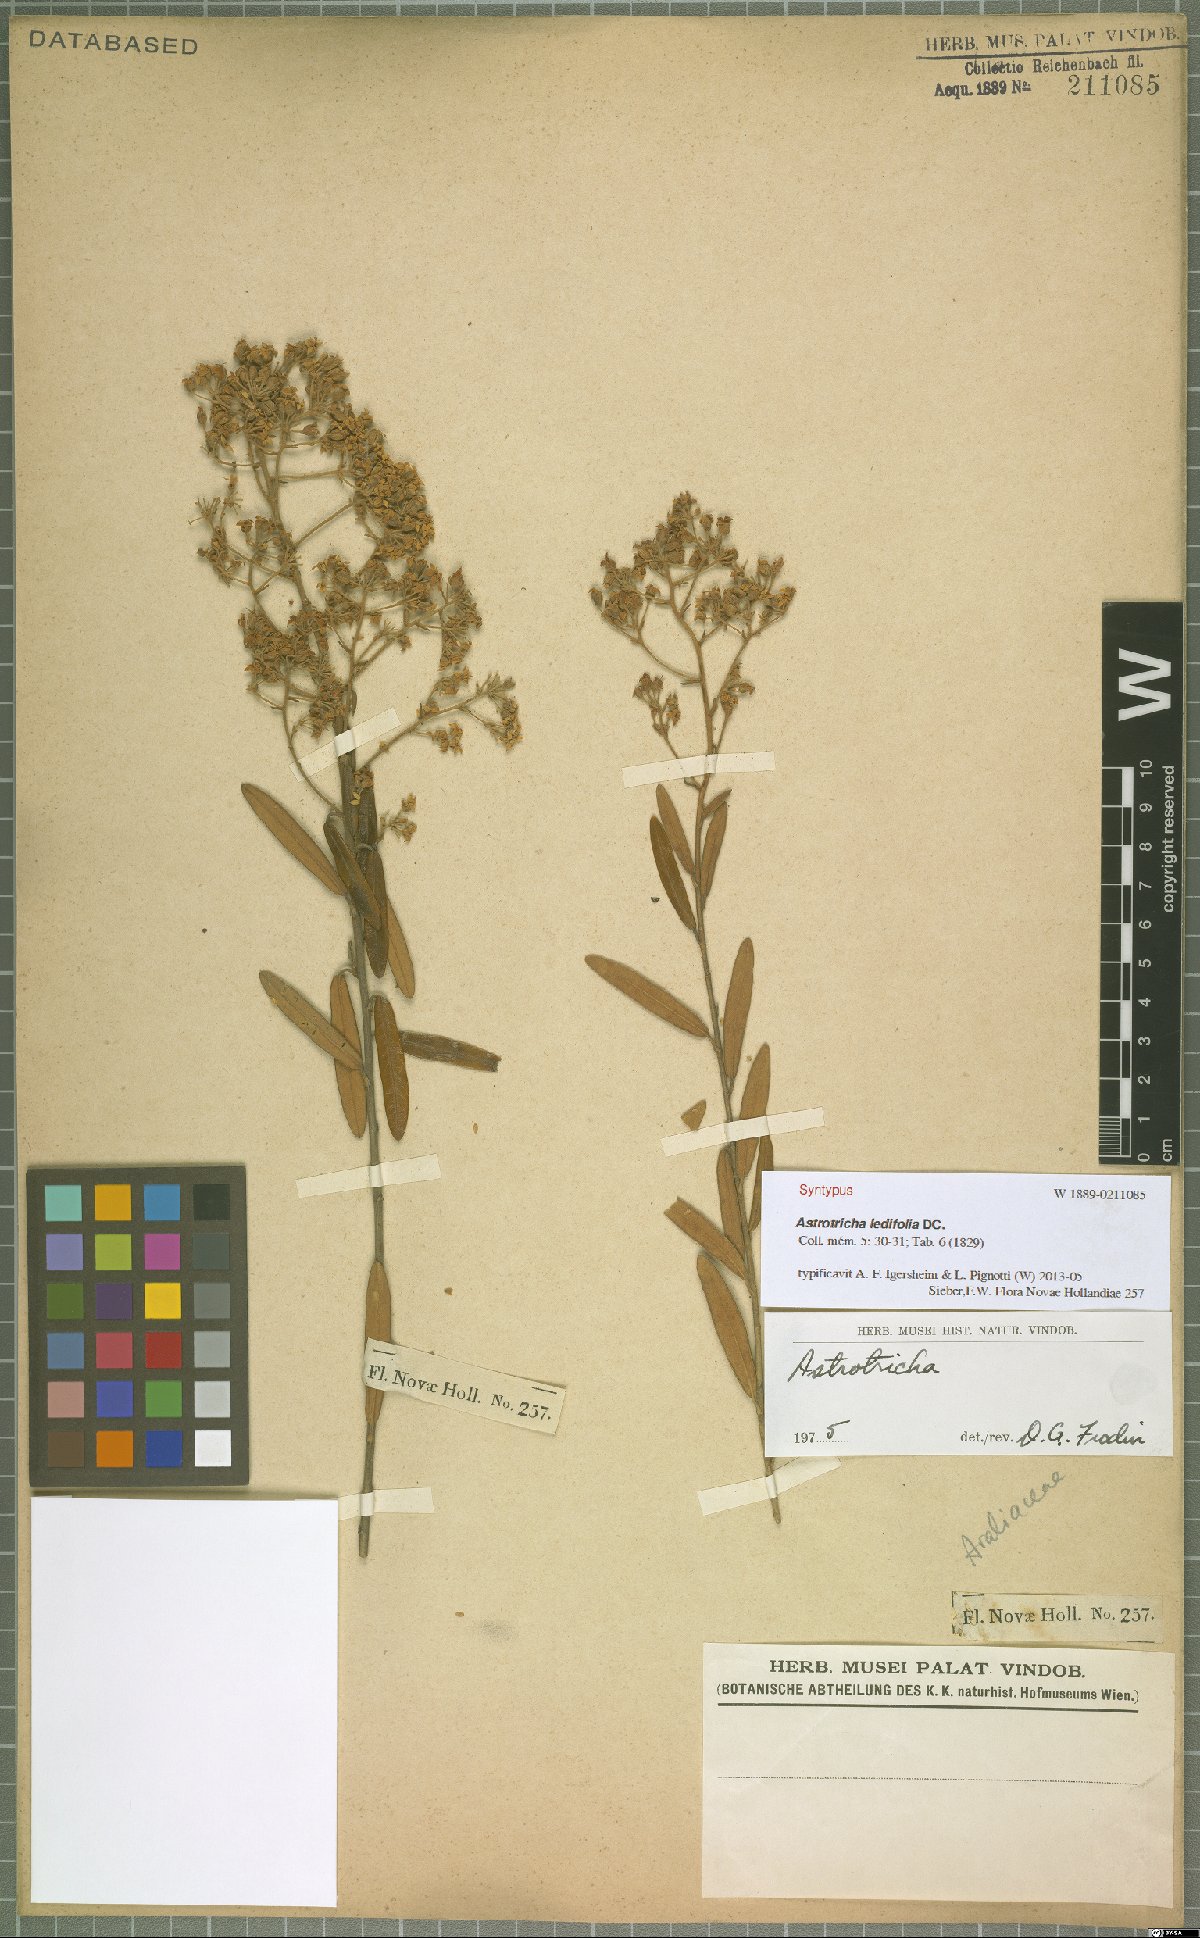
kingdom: Plantae
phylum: Tracheophyta
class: Magnoliopsida
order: Apiales
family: Araliaceae
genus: Astrotricha
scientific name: Astrotricha ledifolia
